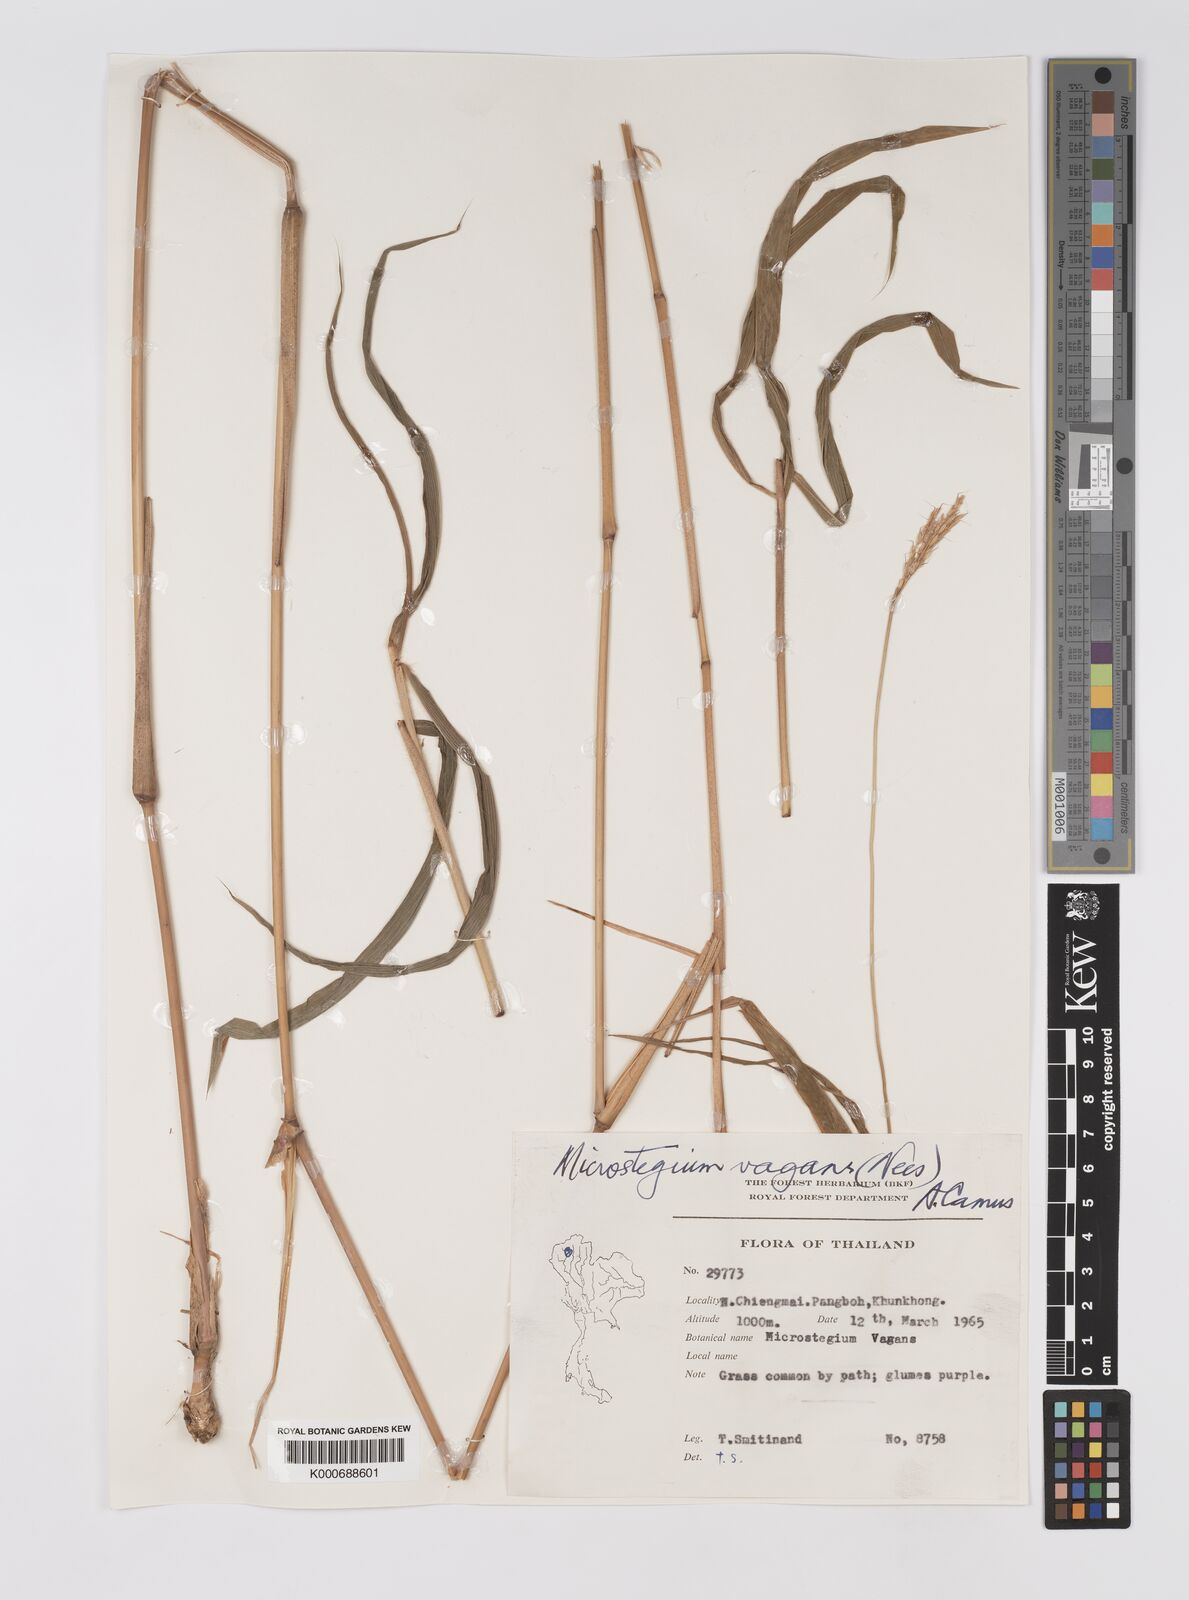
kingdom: Plantae
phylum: Tracheophyta
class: Liliopsida
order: Poales
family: Poaceae
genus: Microstegium
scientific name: Microstegium fasciculatum
